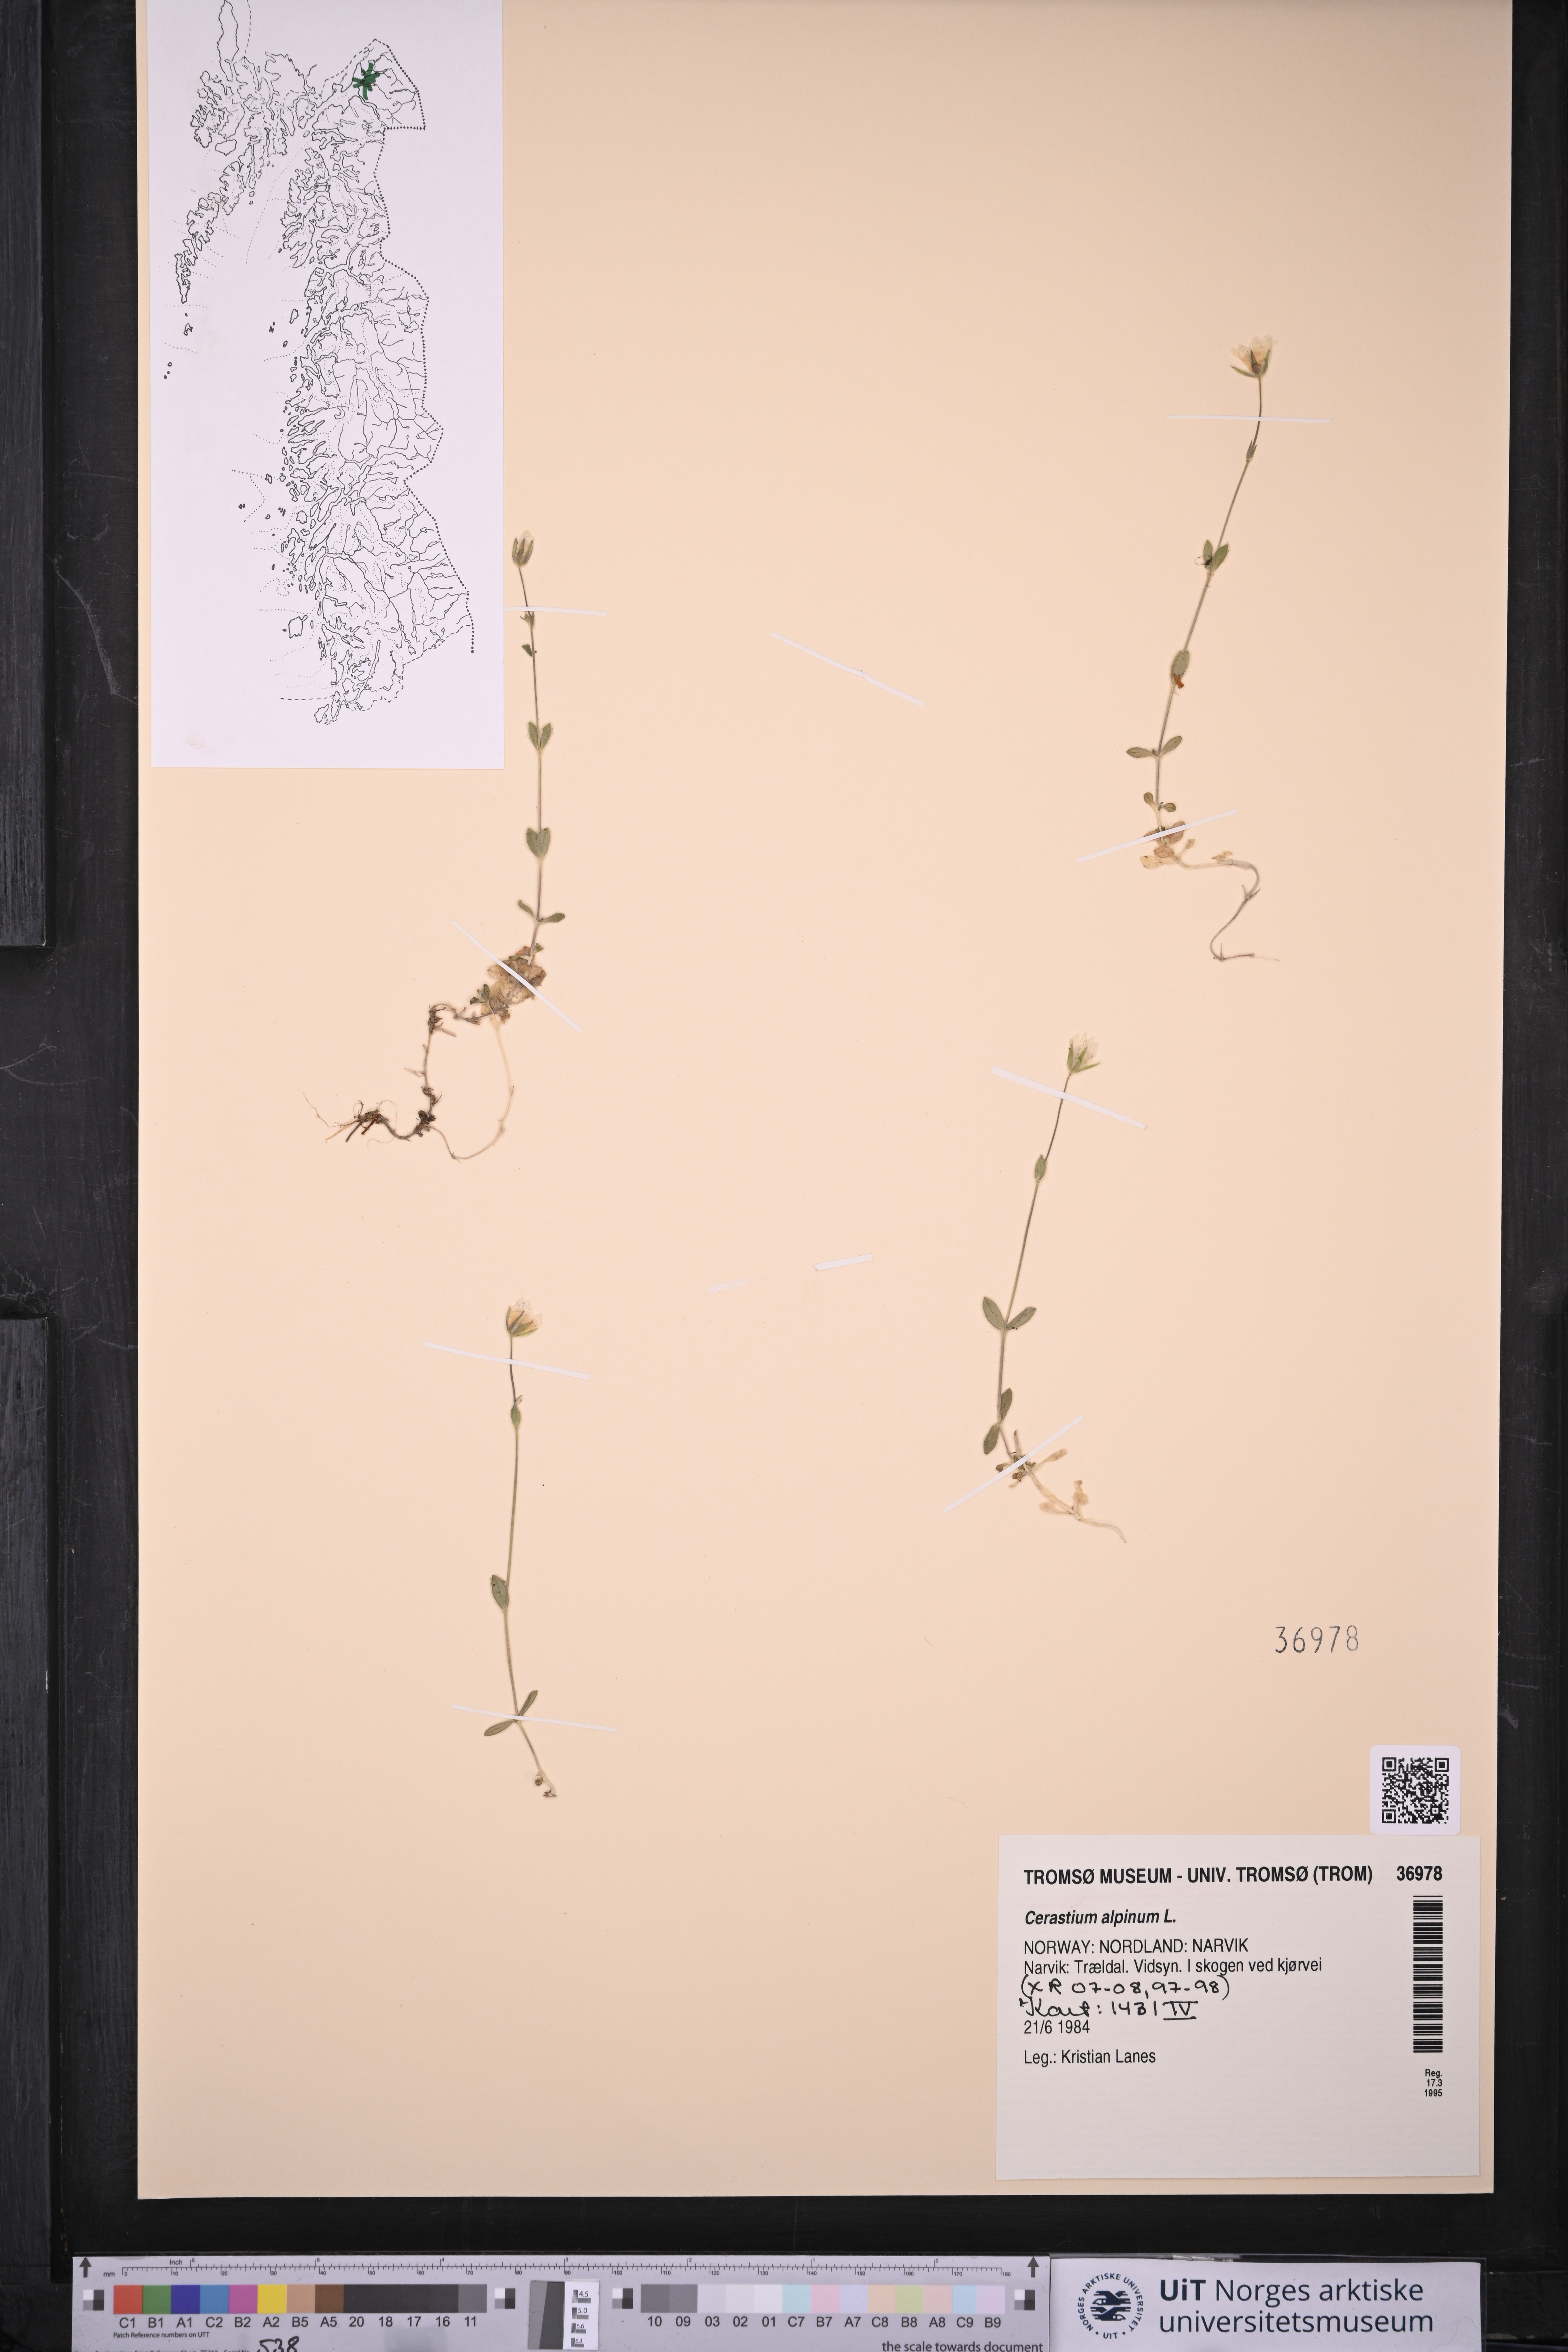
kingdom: Plantae
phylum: Tracheophyta
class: Magnoliopsida
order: Caryophyllales
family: Caryophyllaceae
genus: Cerastium
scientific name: Cerastium alpinum
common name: Alpine mouse-ear
